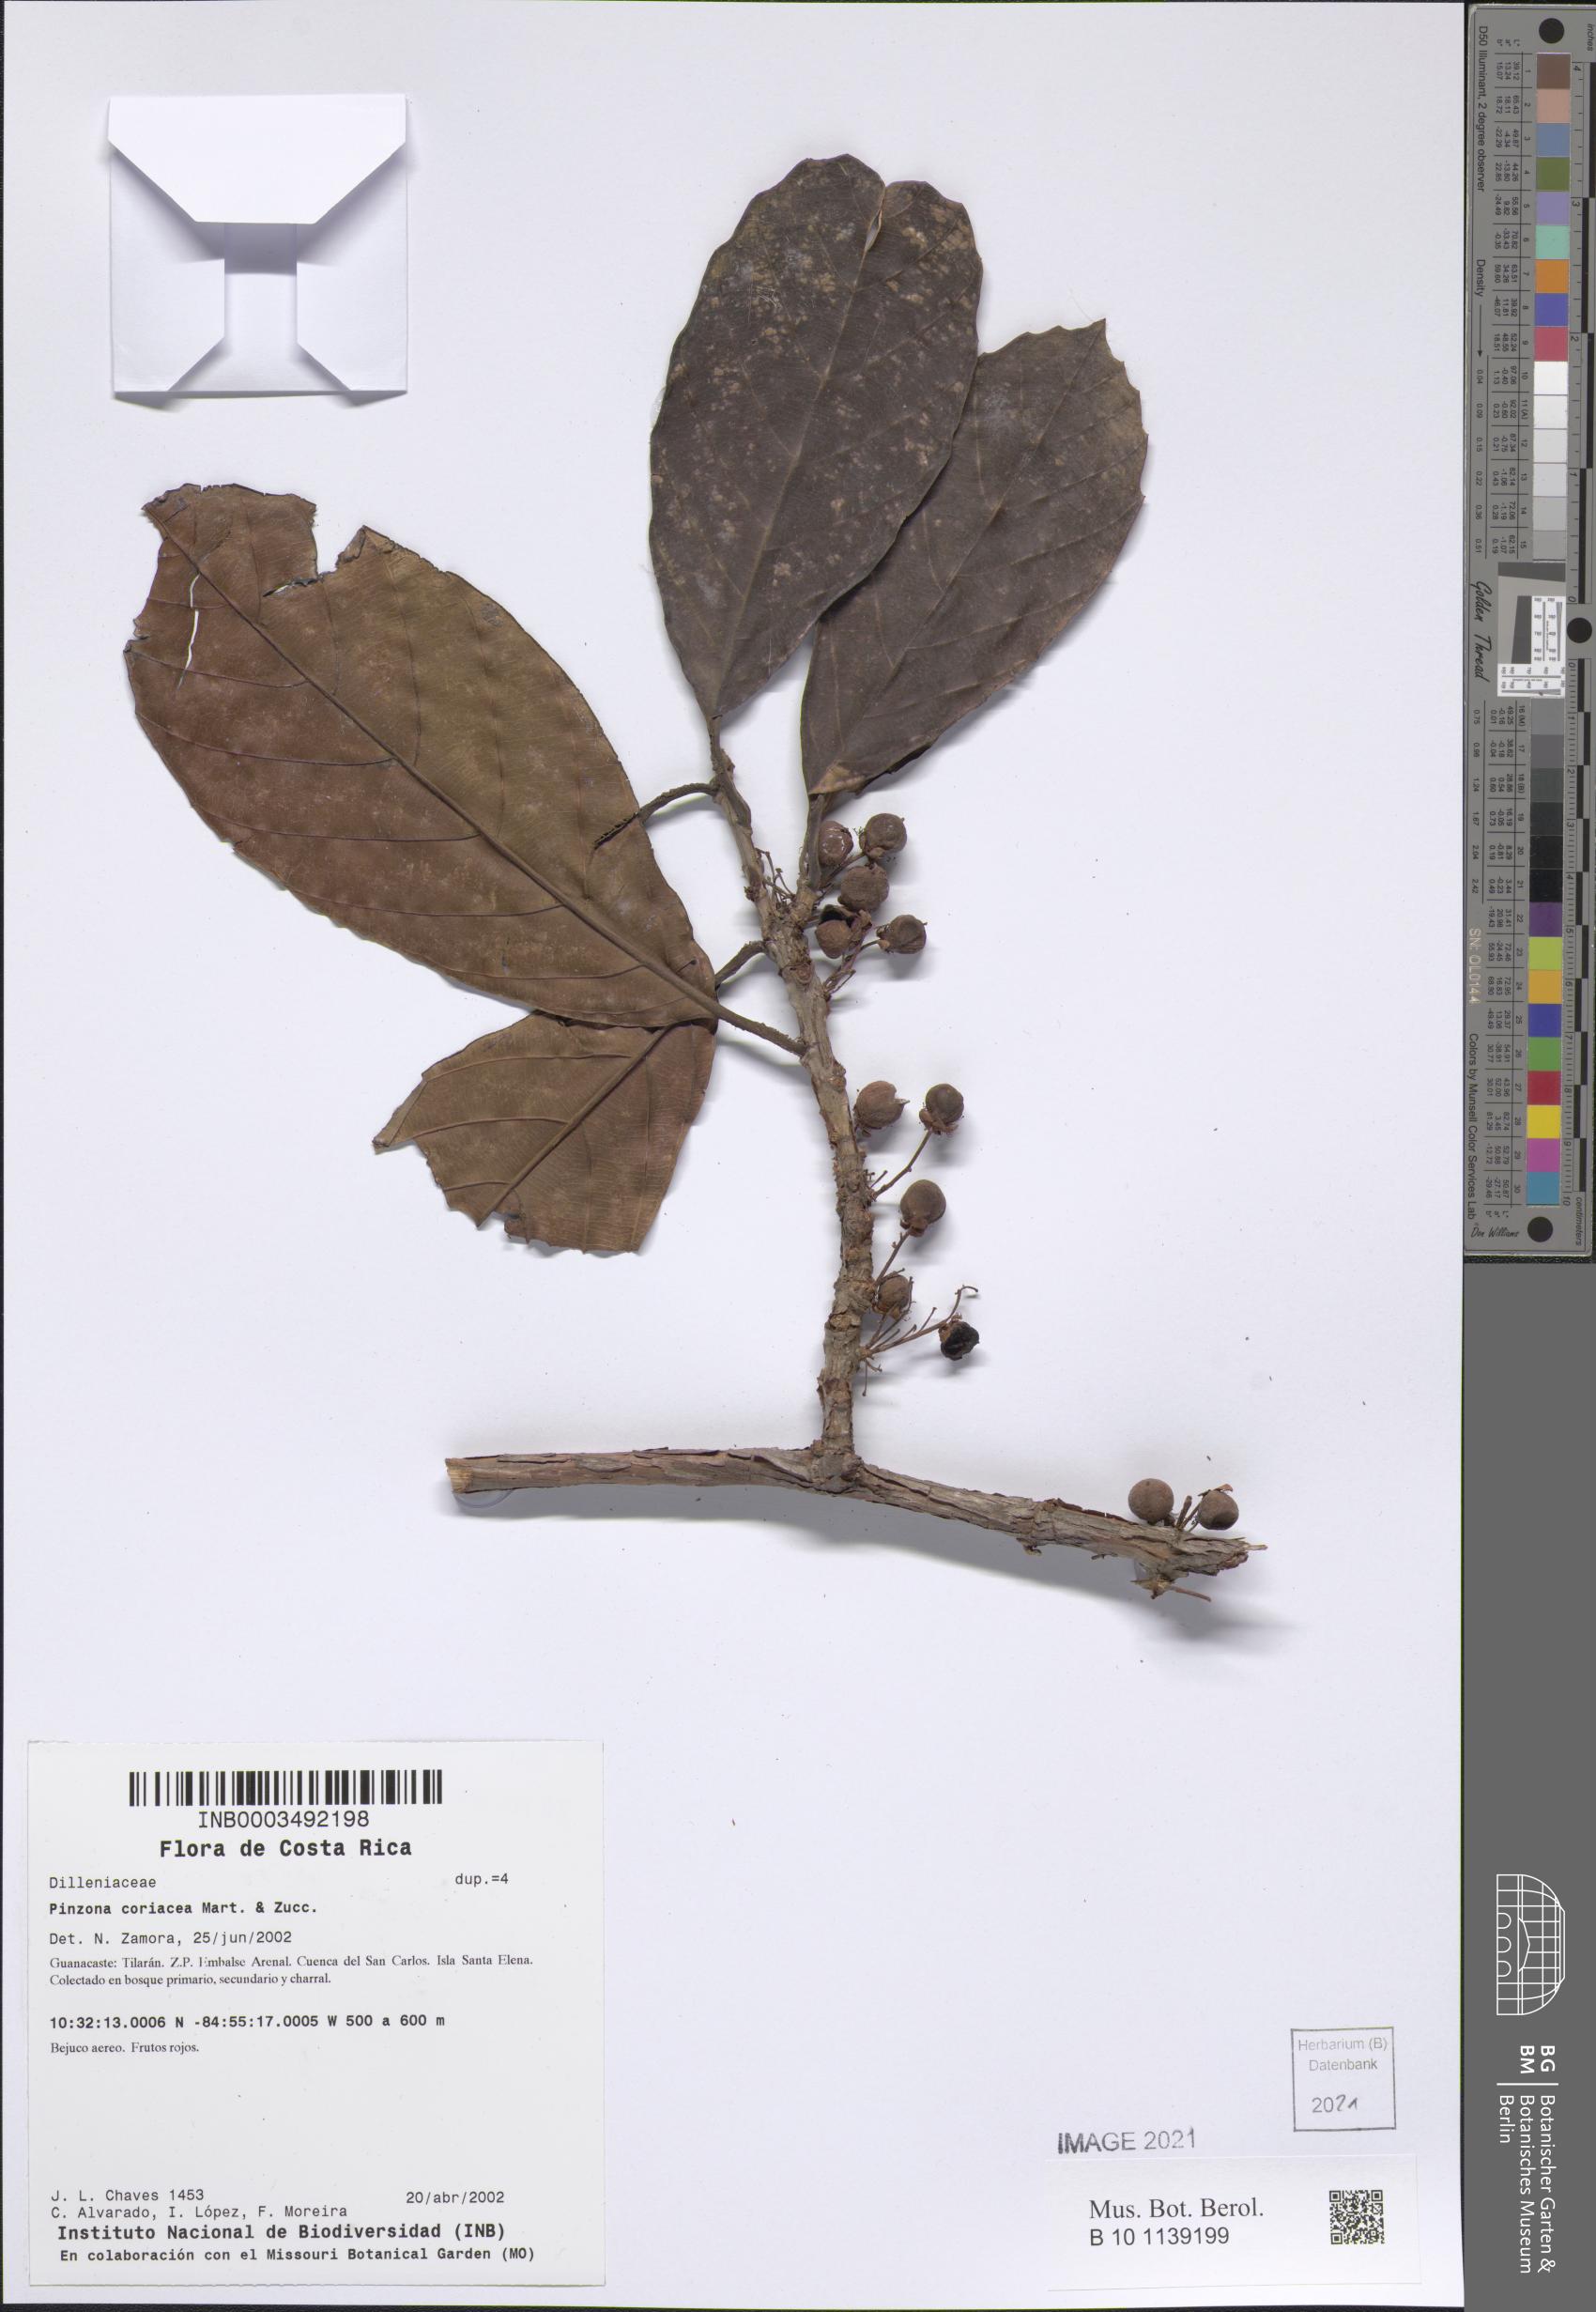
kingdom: Plantae
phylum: Tracheophyta
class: Magnoliopsida
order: Dilleniales
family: Dilleniaceae
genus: Doliocarpus
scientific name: Doliocarpus
